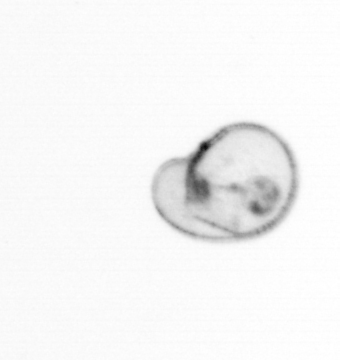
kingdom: Chromista
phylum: Myzozoa
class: Dinophyceae
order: Noctilucales
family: Noctilucaceae
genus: Noctiluca
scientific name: Noctiluca scintillans
